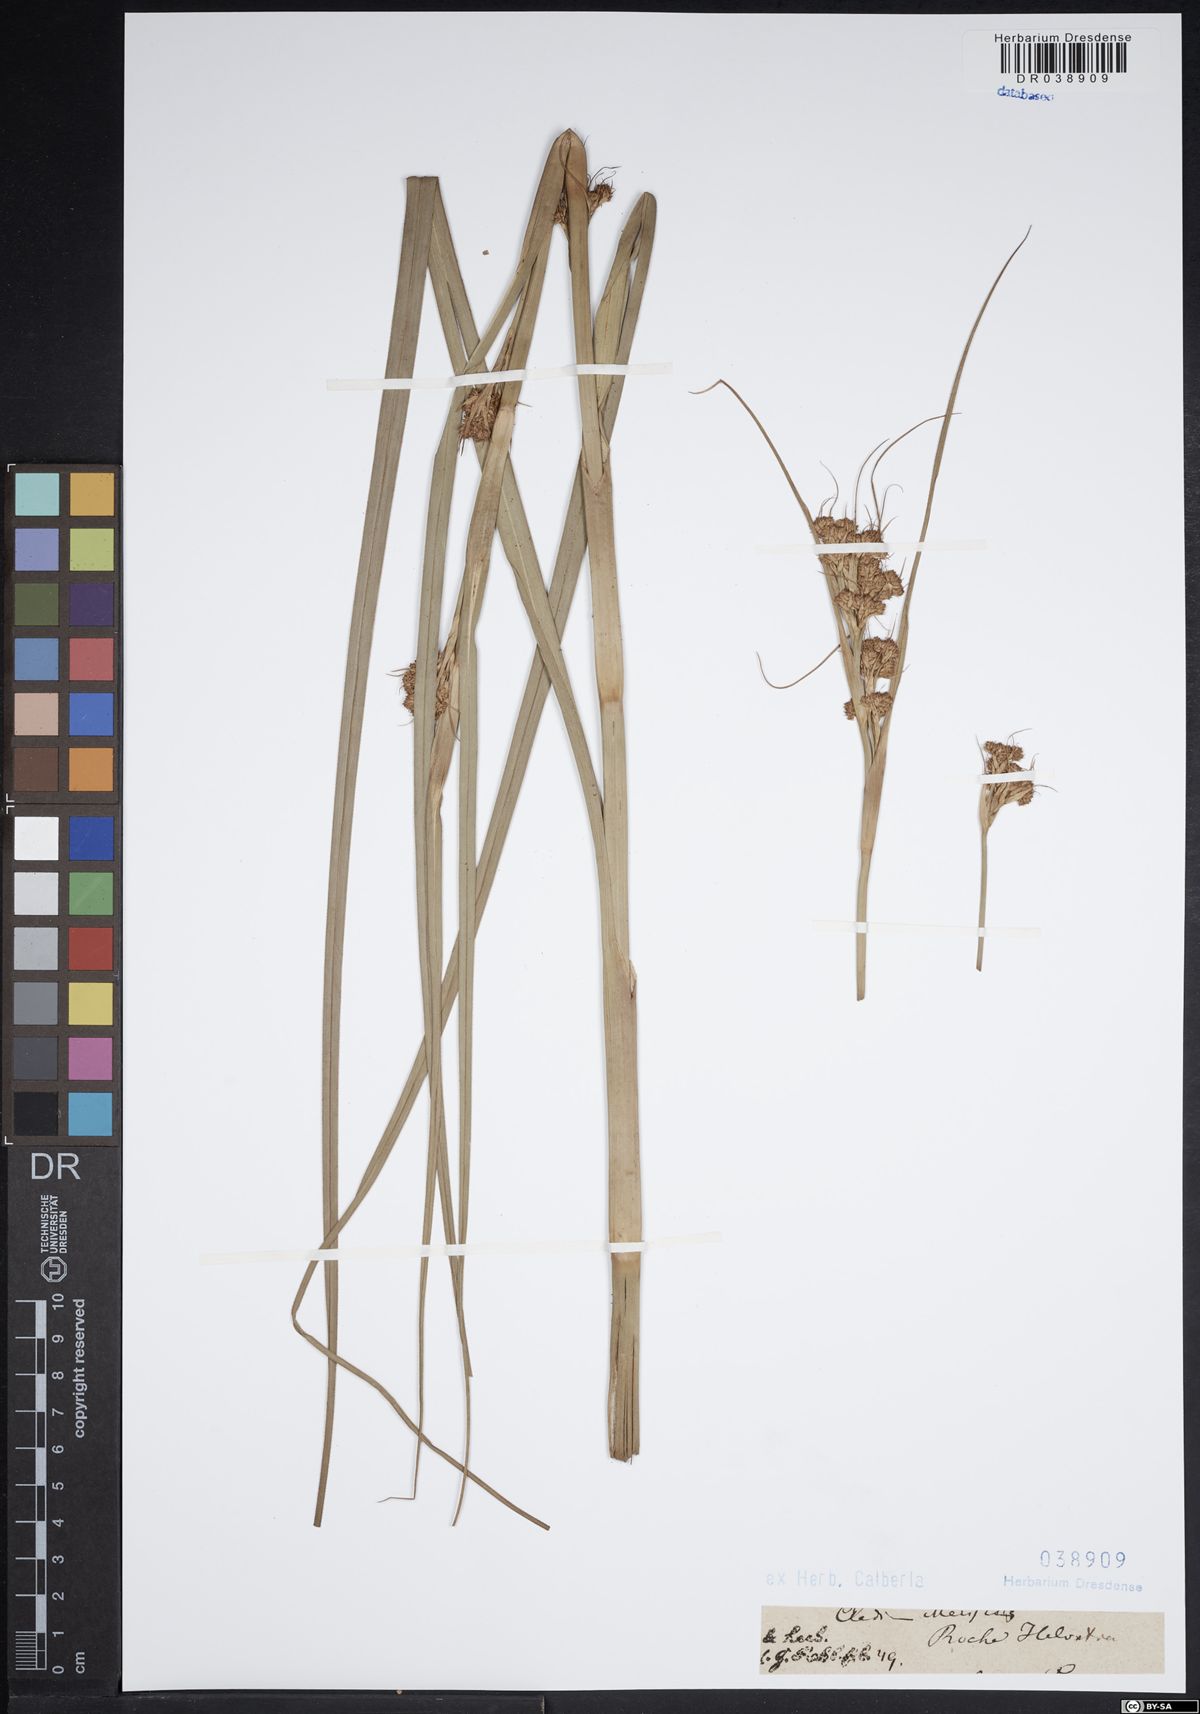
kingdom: Plantae
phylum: Tracheophyta
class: Liliopsida
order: Poales
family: Cyperaceae
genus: Cladium
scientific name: Cladium mariscus
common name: Great fen-sedge
